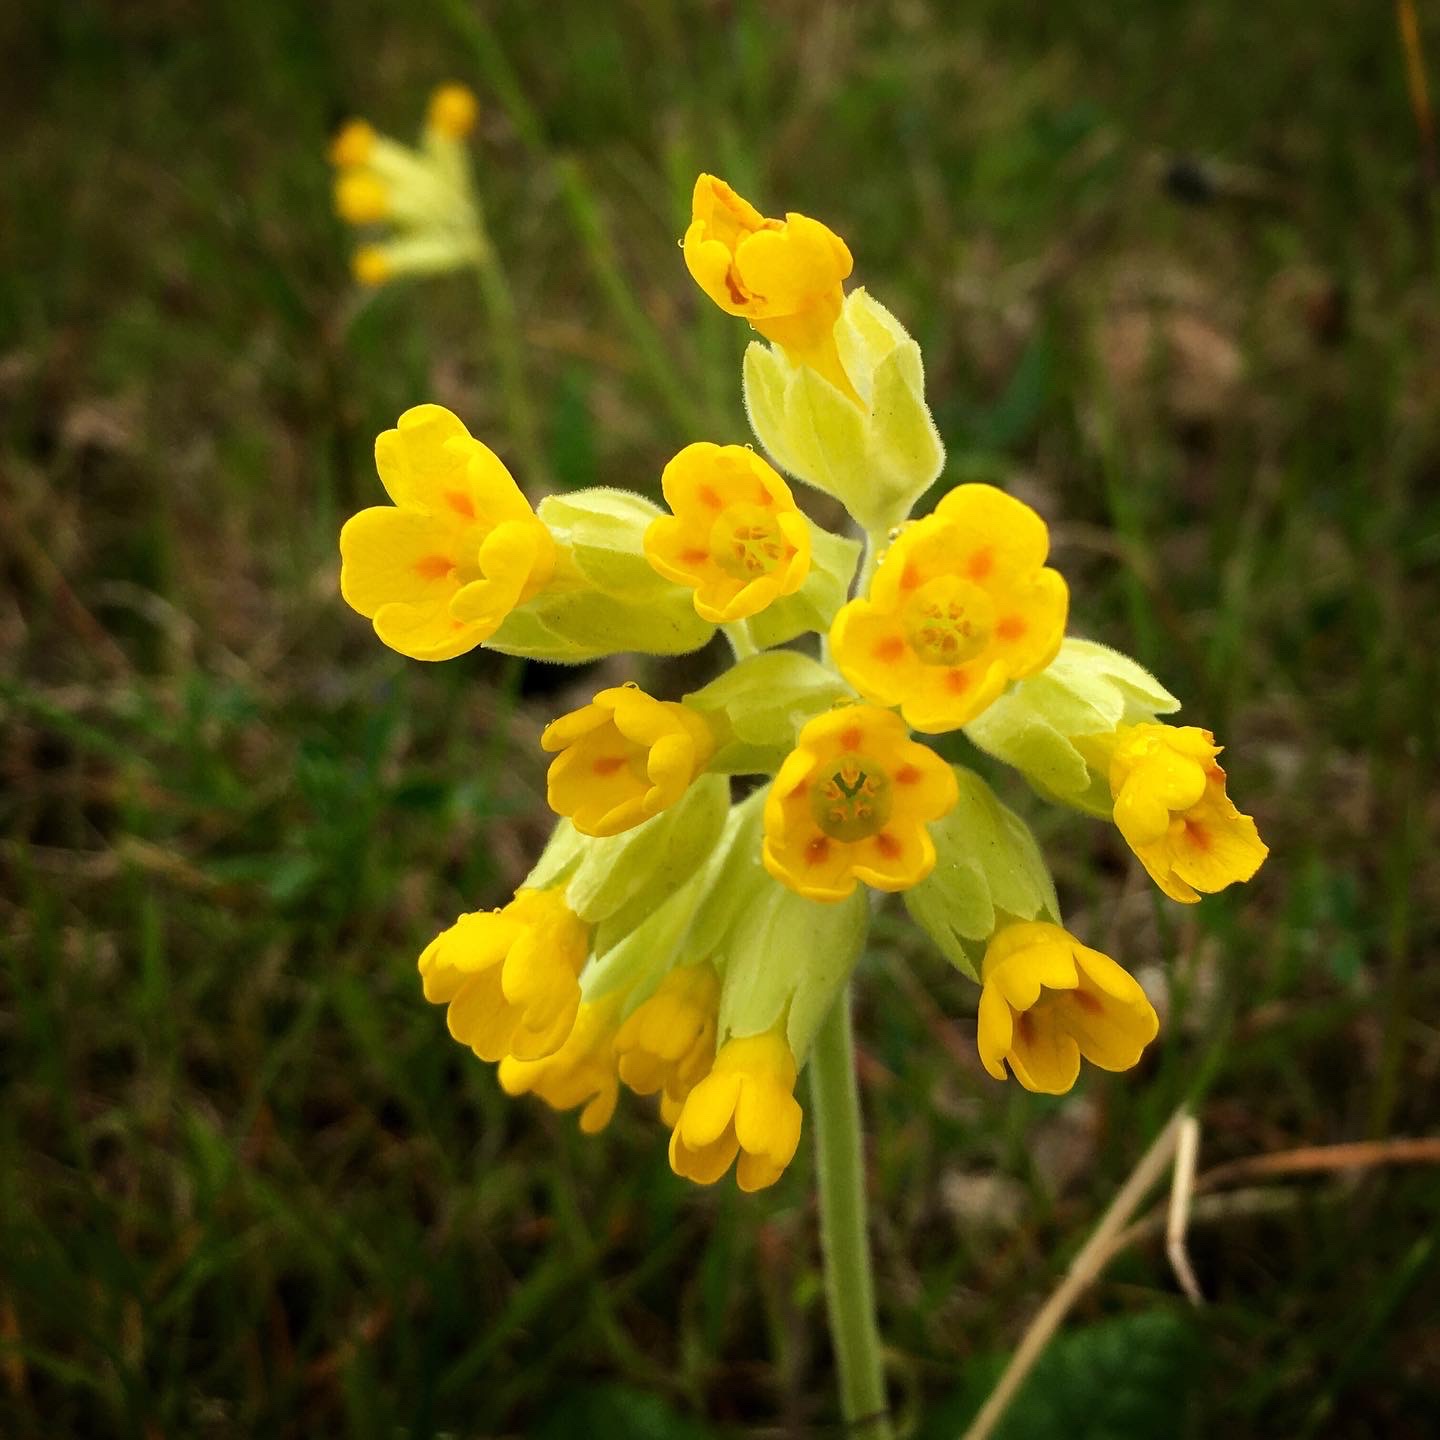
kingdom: Plantae
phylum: Tracheophyta
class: Magnoliopsida
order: Ericales
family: Primulaceae
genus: Primula
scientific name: Primula veris
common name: Hulkravet kodriver
